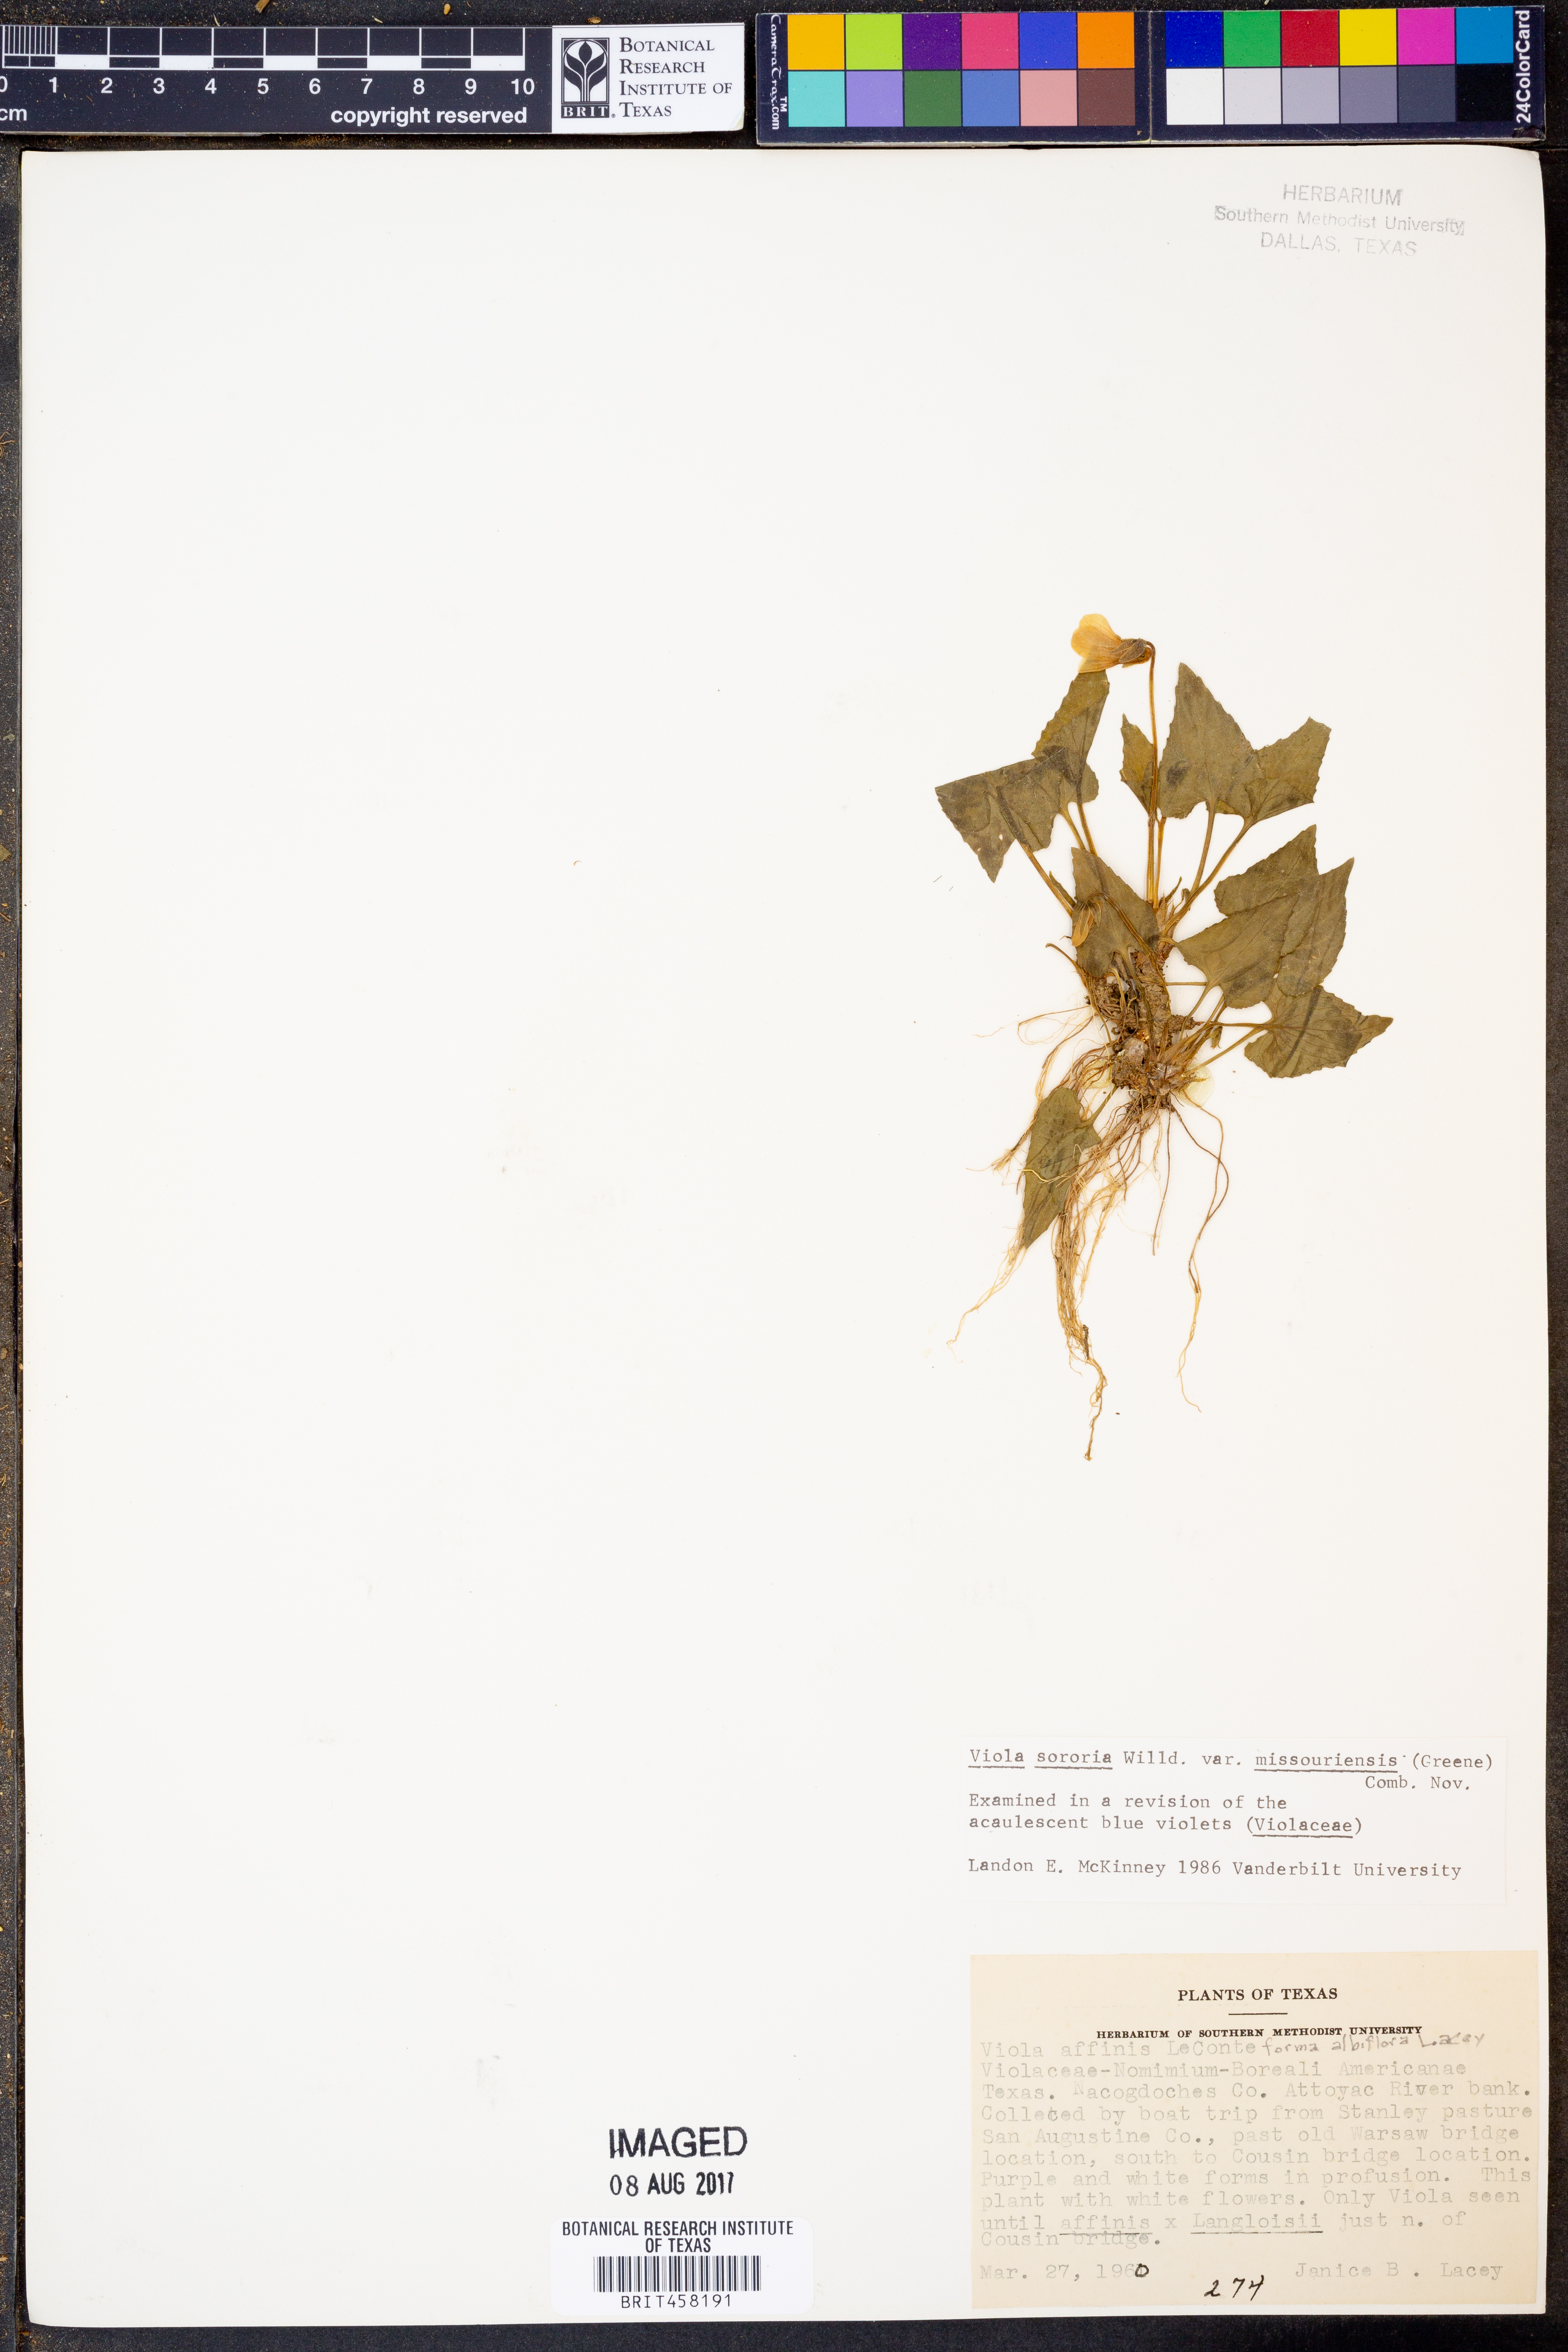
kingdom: Plantae
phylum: Tracheophyta
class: Magnoliopsida
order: Malpighiales
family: Violaceae
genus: Viola
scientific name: Viola missouriensis
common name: Missouri violet
